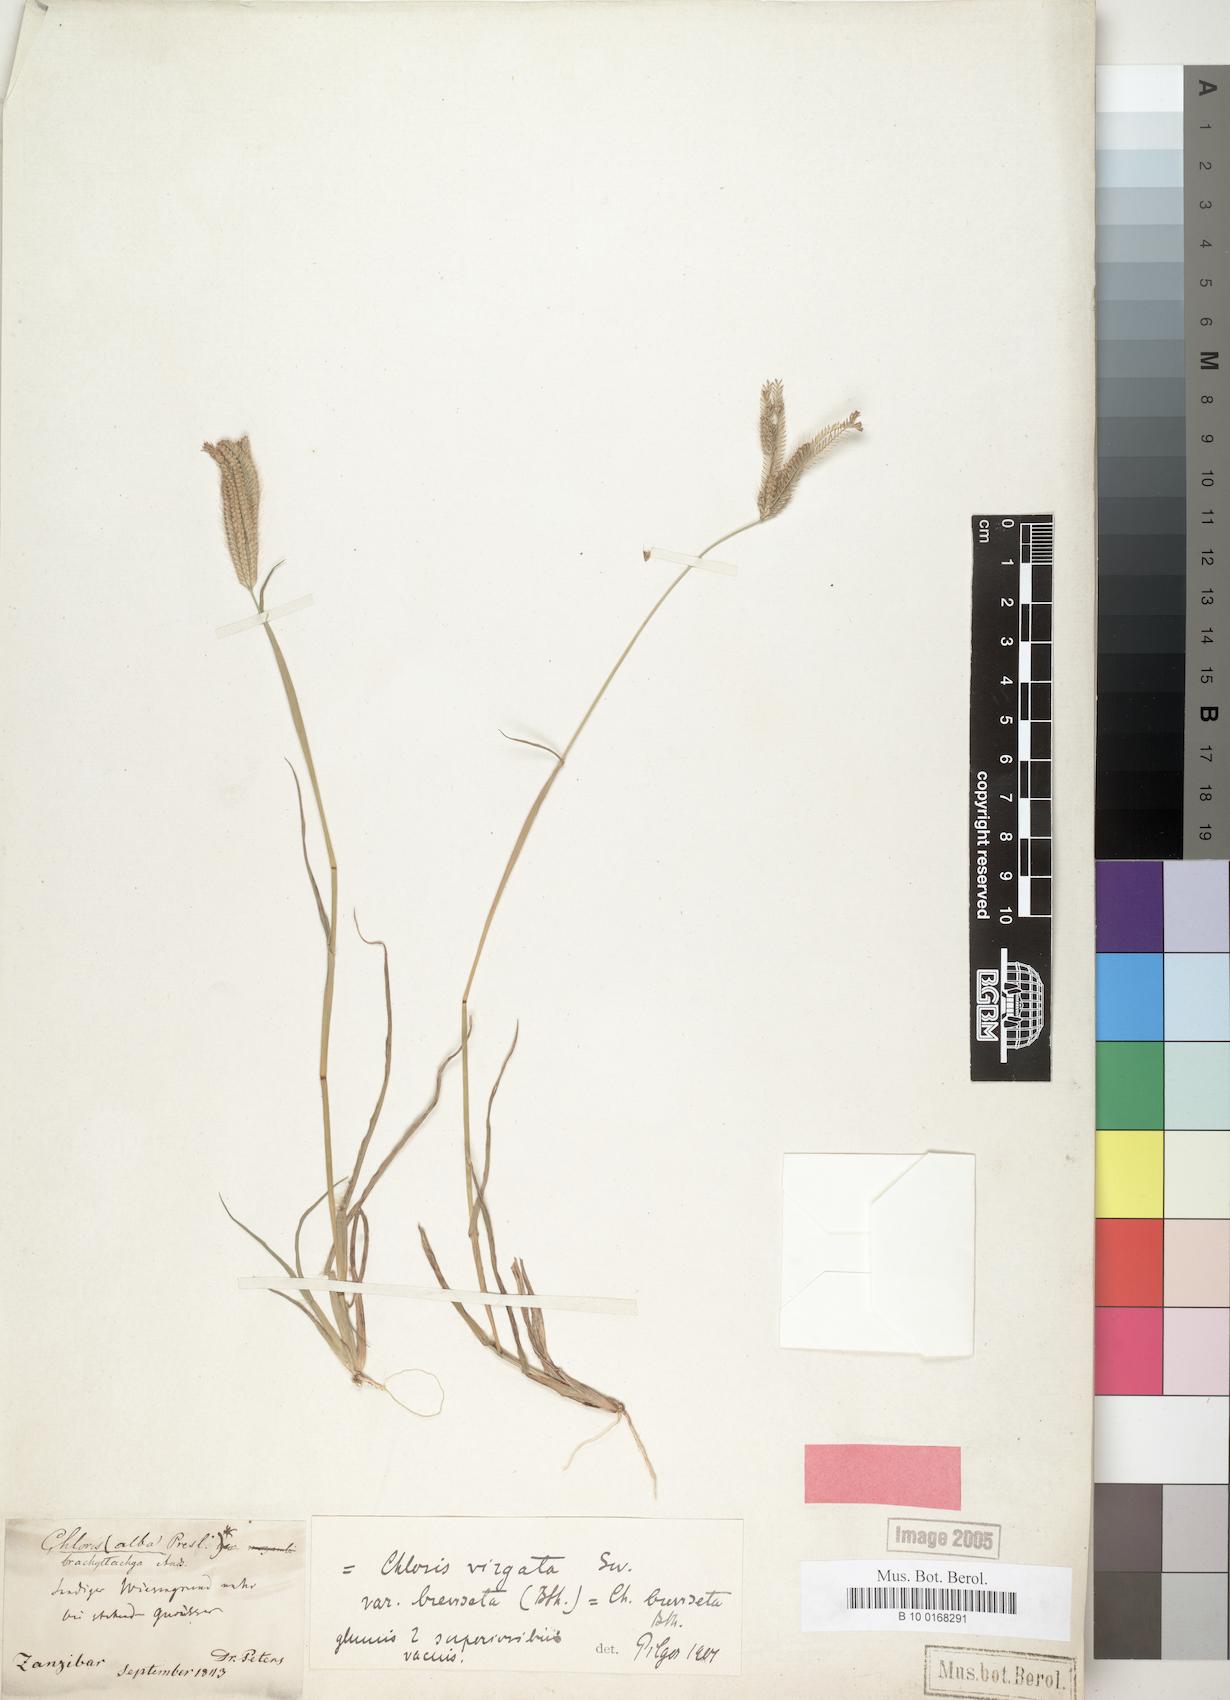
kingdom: Plantae
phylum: Tracheophyta
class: Liliopsida
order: Poales
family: Poaceae
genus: Chloris
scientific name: Chloris virgata
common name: Feathery rhodes-grass
